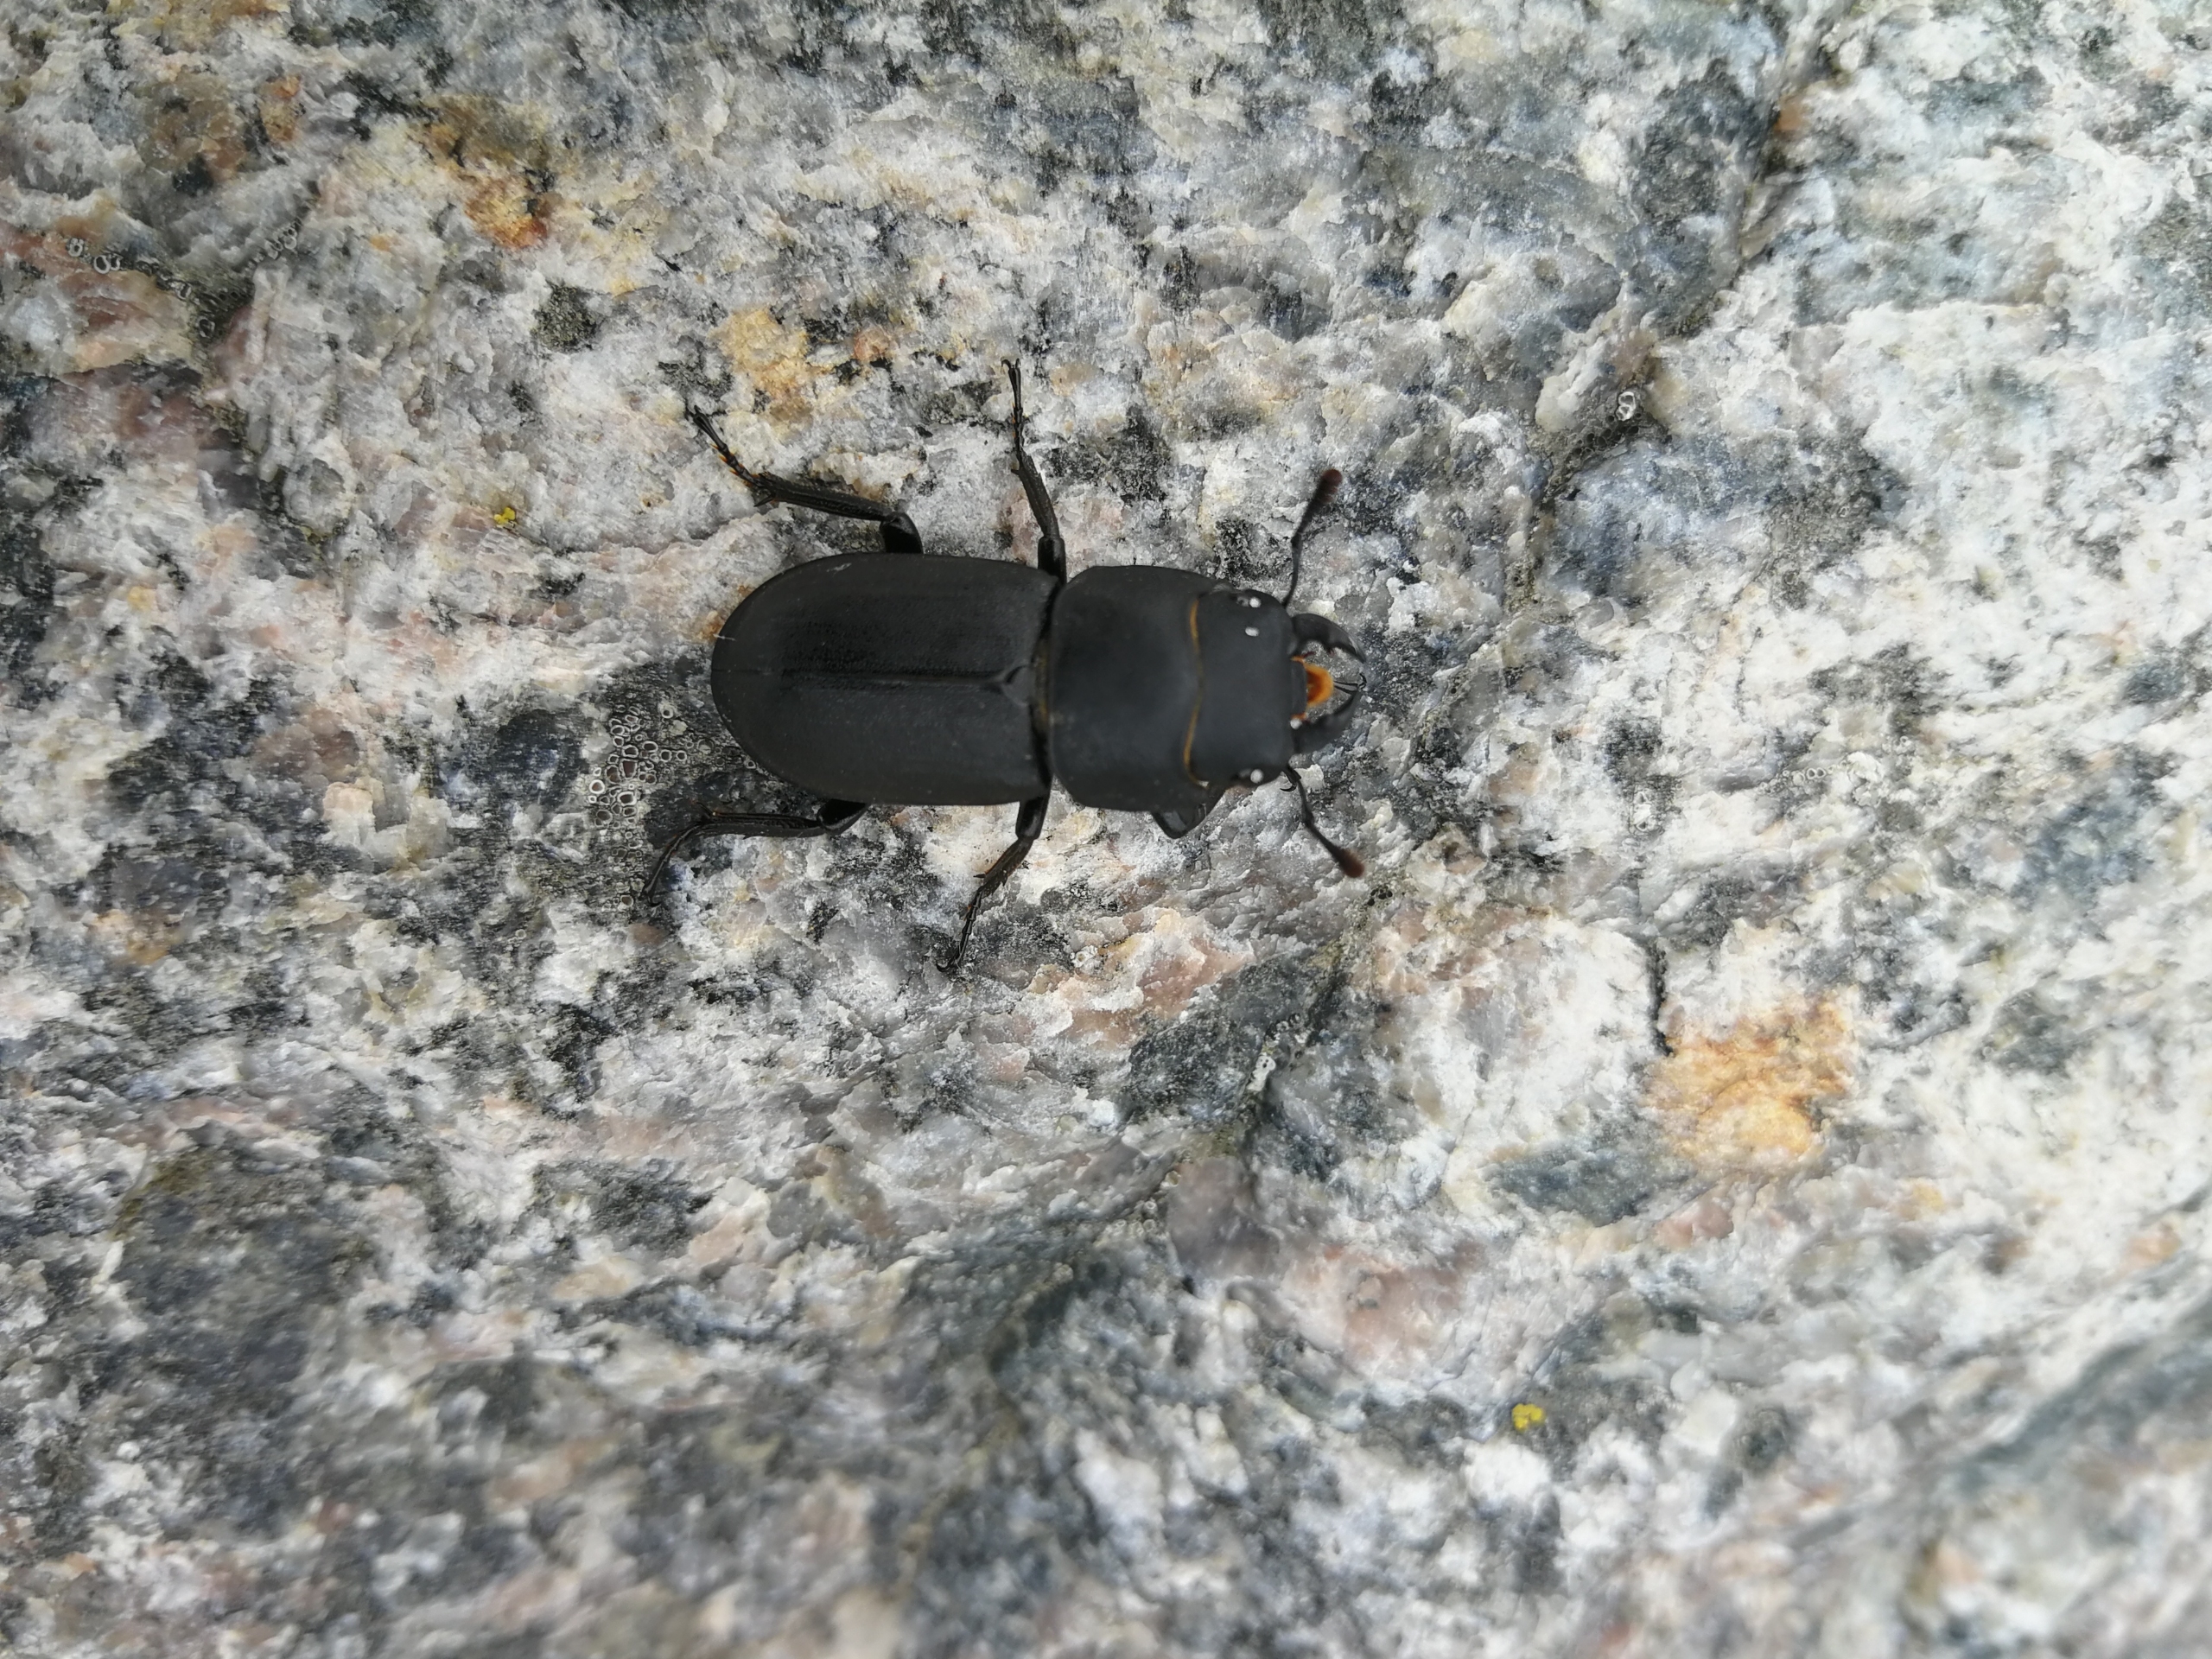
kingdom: Animalia
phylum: Arthropoda
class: Insecta
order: Coleoptera
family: Lucanidae
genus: Dorcus
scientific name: Dorcus parallelipipedus
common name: Bøghjort
